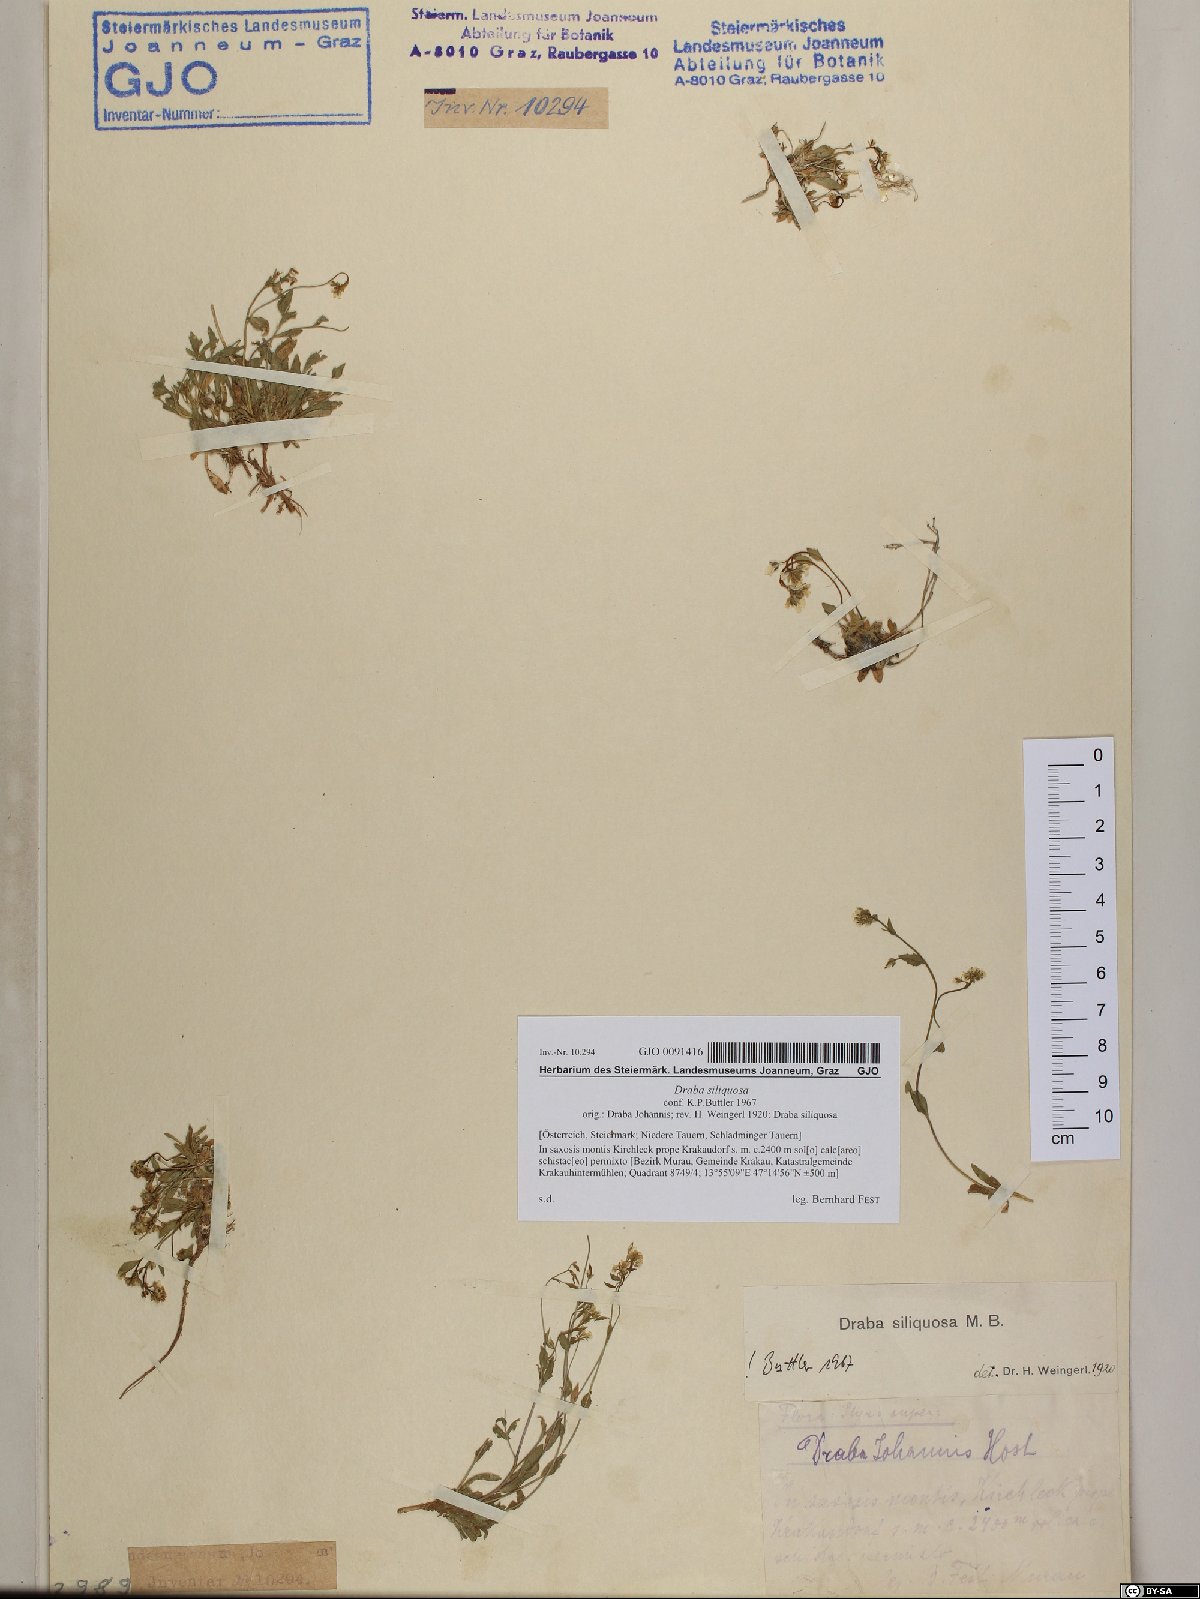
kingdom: Plantae
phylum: Tracheophyta
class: Magnoliopsida
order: Brassicales
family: Brassicaceae
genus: Draba
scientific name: Draba siliquosa
